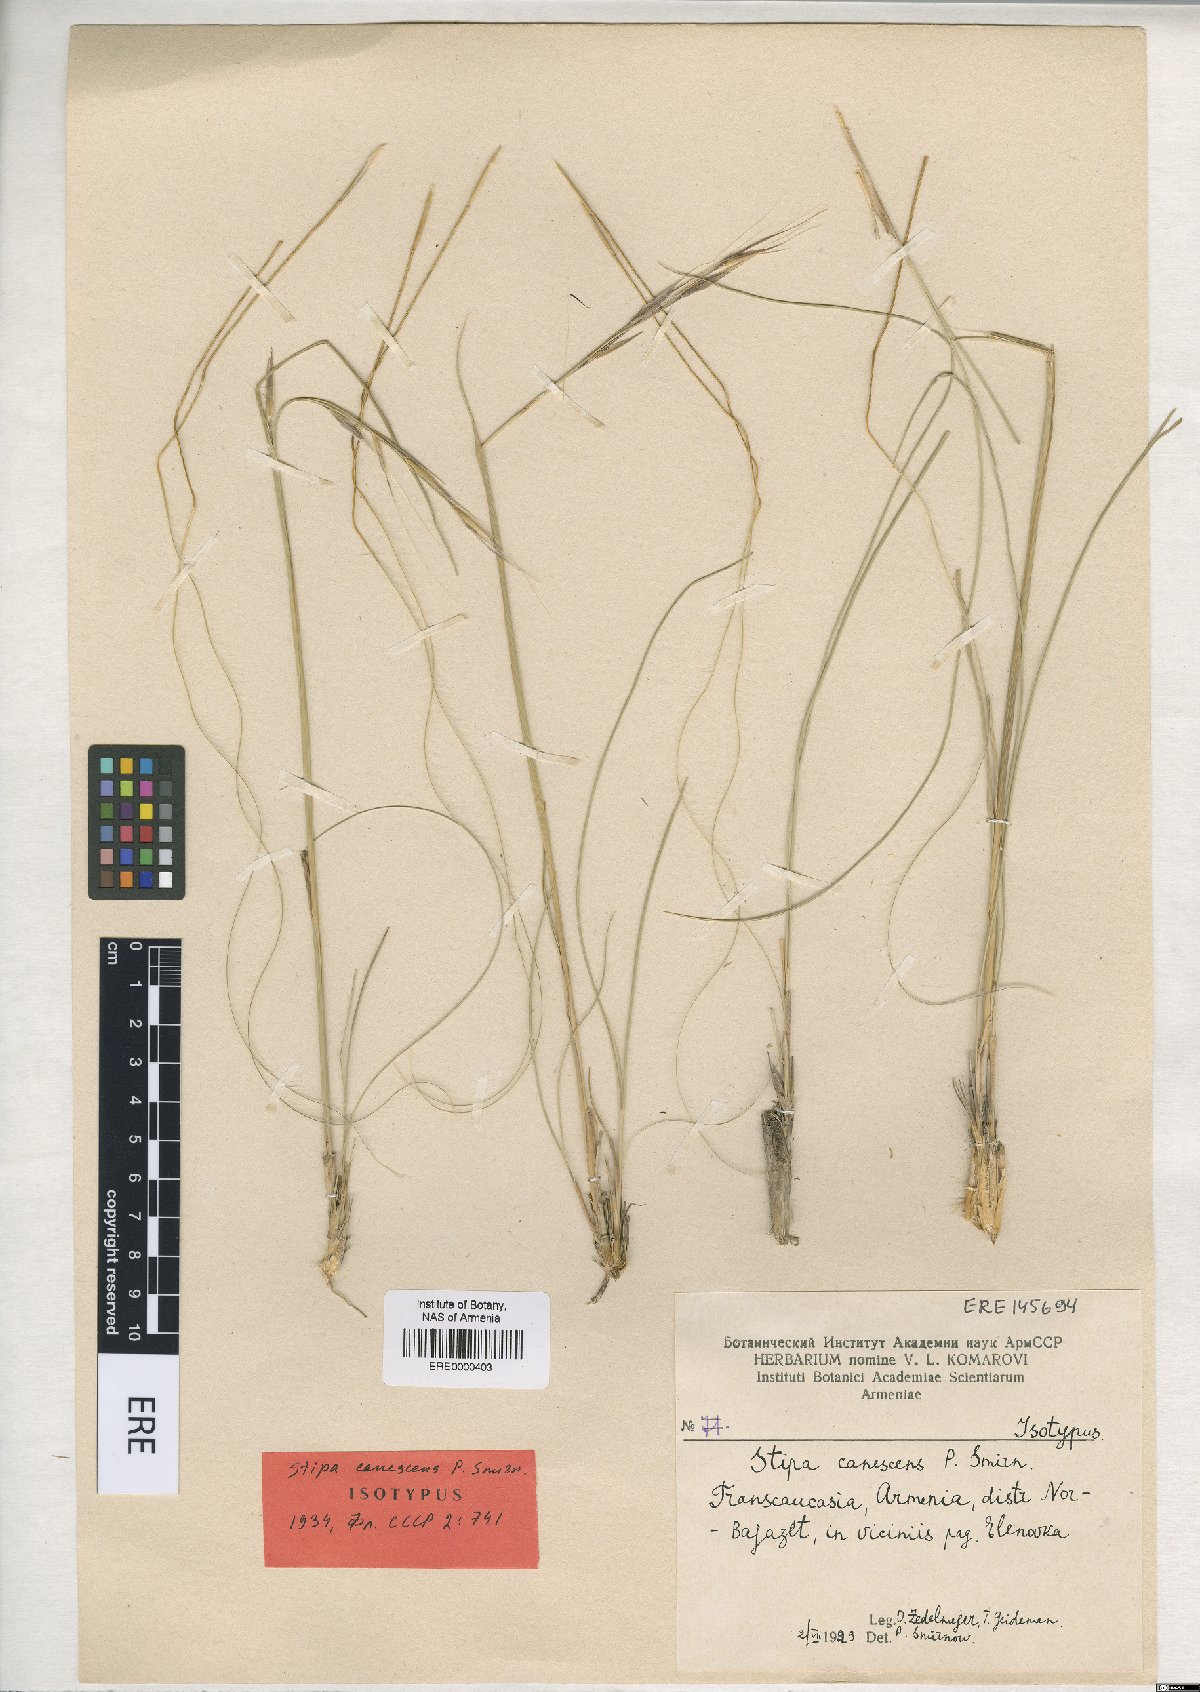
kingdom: Plantae
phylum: Tracheophyta
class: Liliopsida
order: Poales
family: Poaceae
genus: Stipa
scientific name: Stipa zalesskyi
